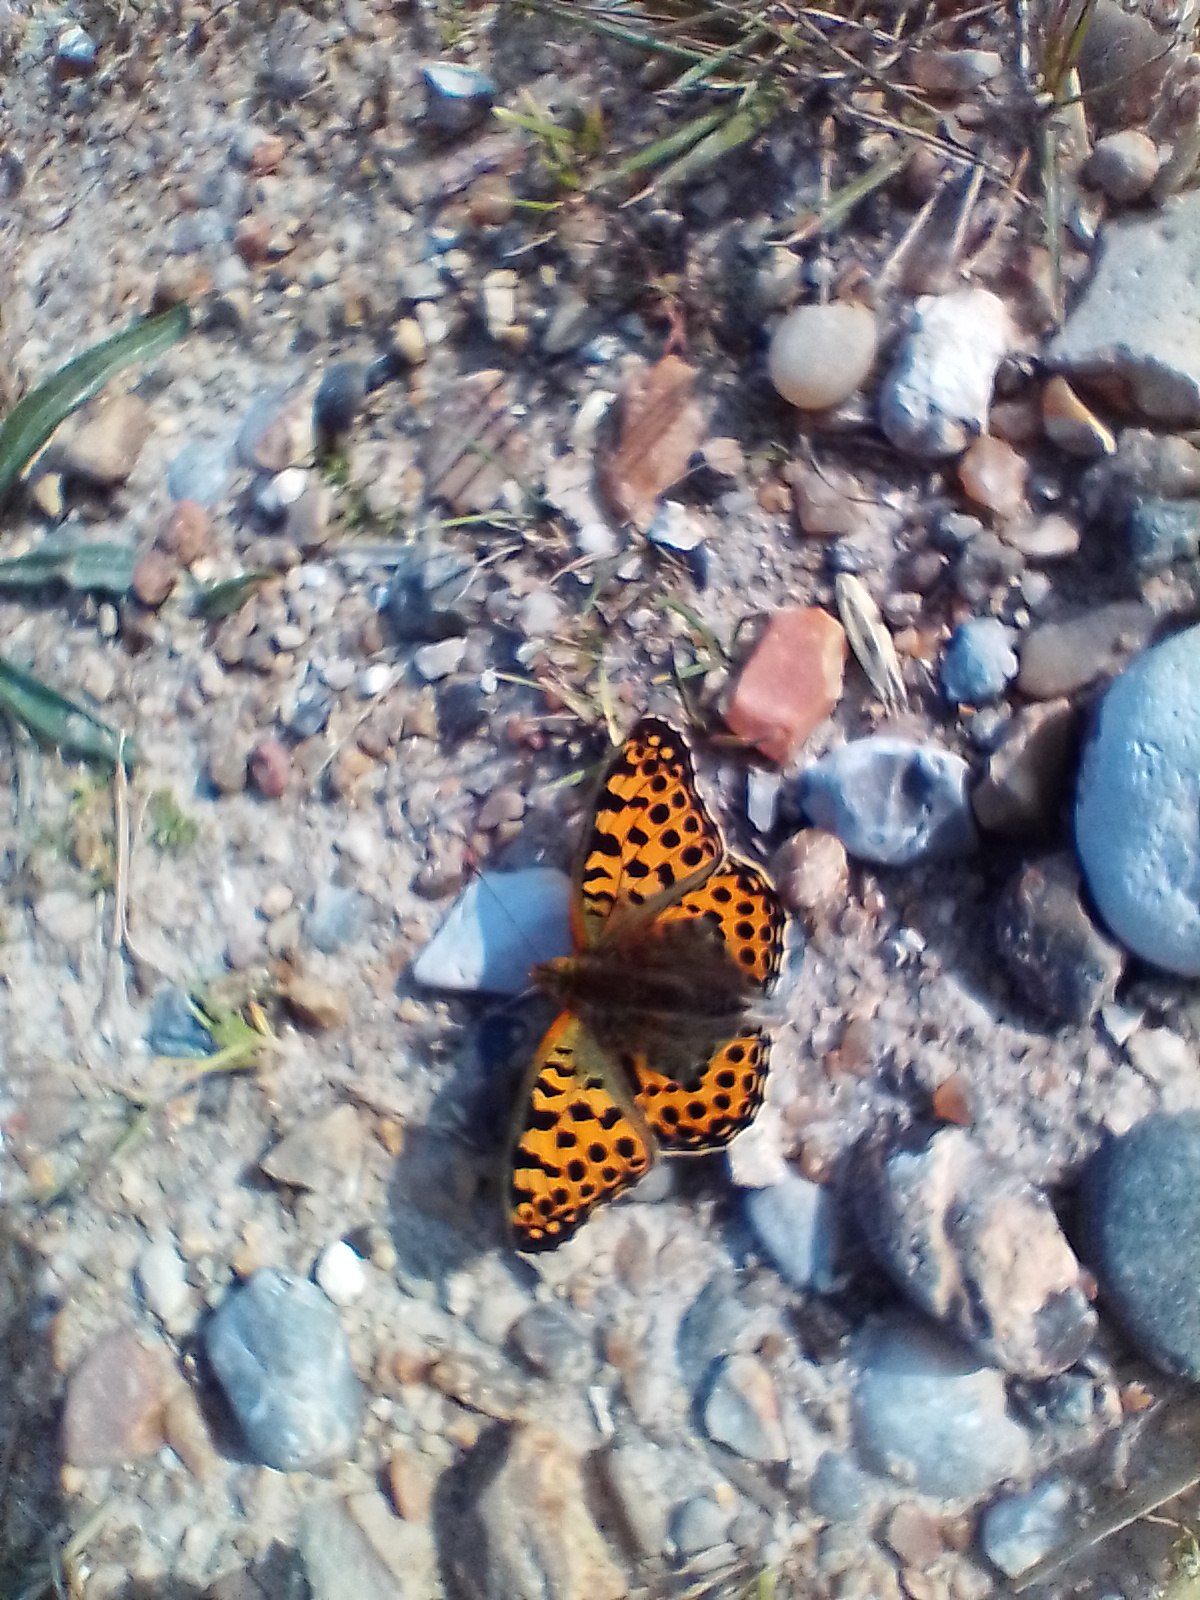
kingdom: Animalia
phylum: Arthropoda
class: Insecta
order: Lepidoptera
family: Nymphalidae
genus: Issoria
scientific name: Issoria lathonia
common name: Storplettet perlemorsommerfugl
